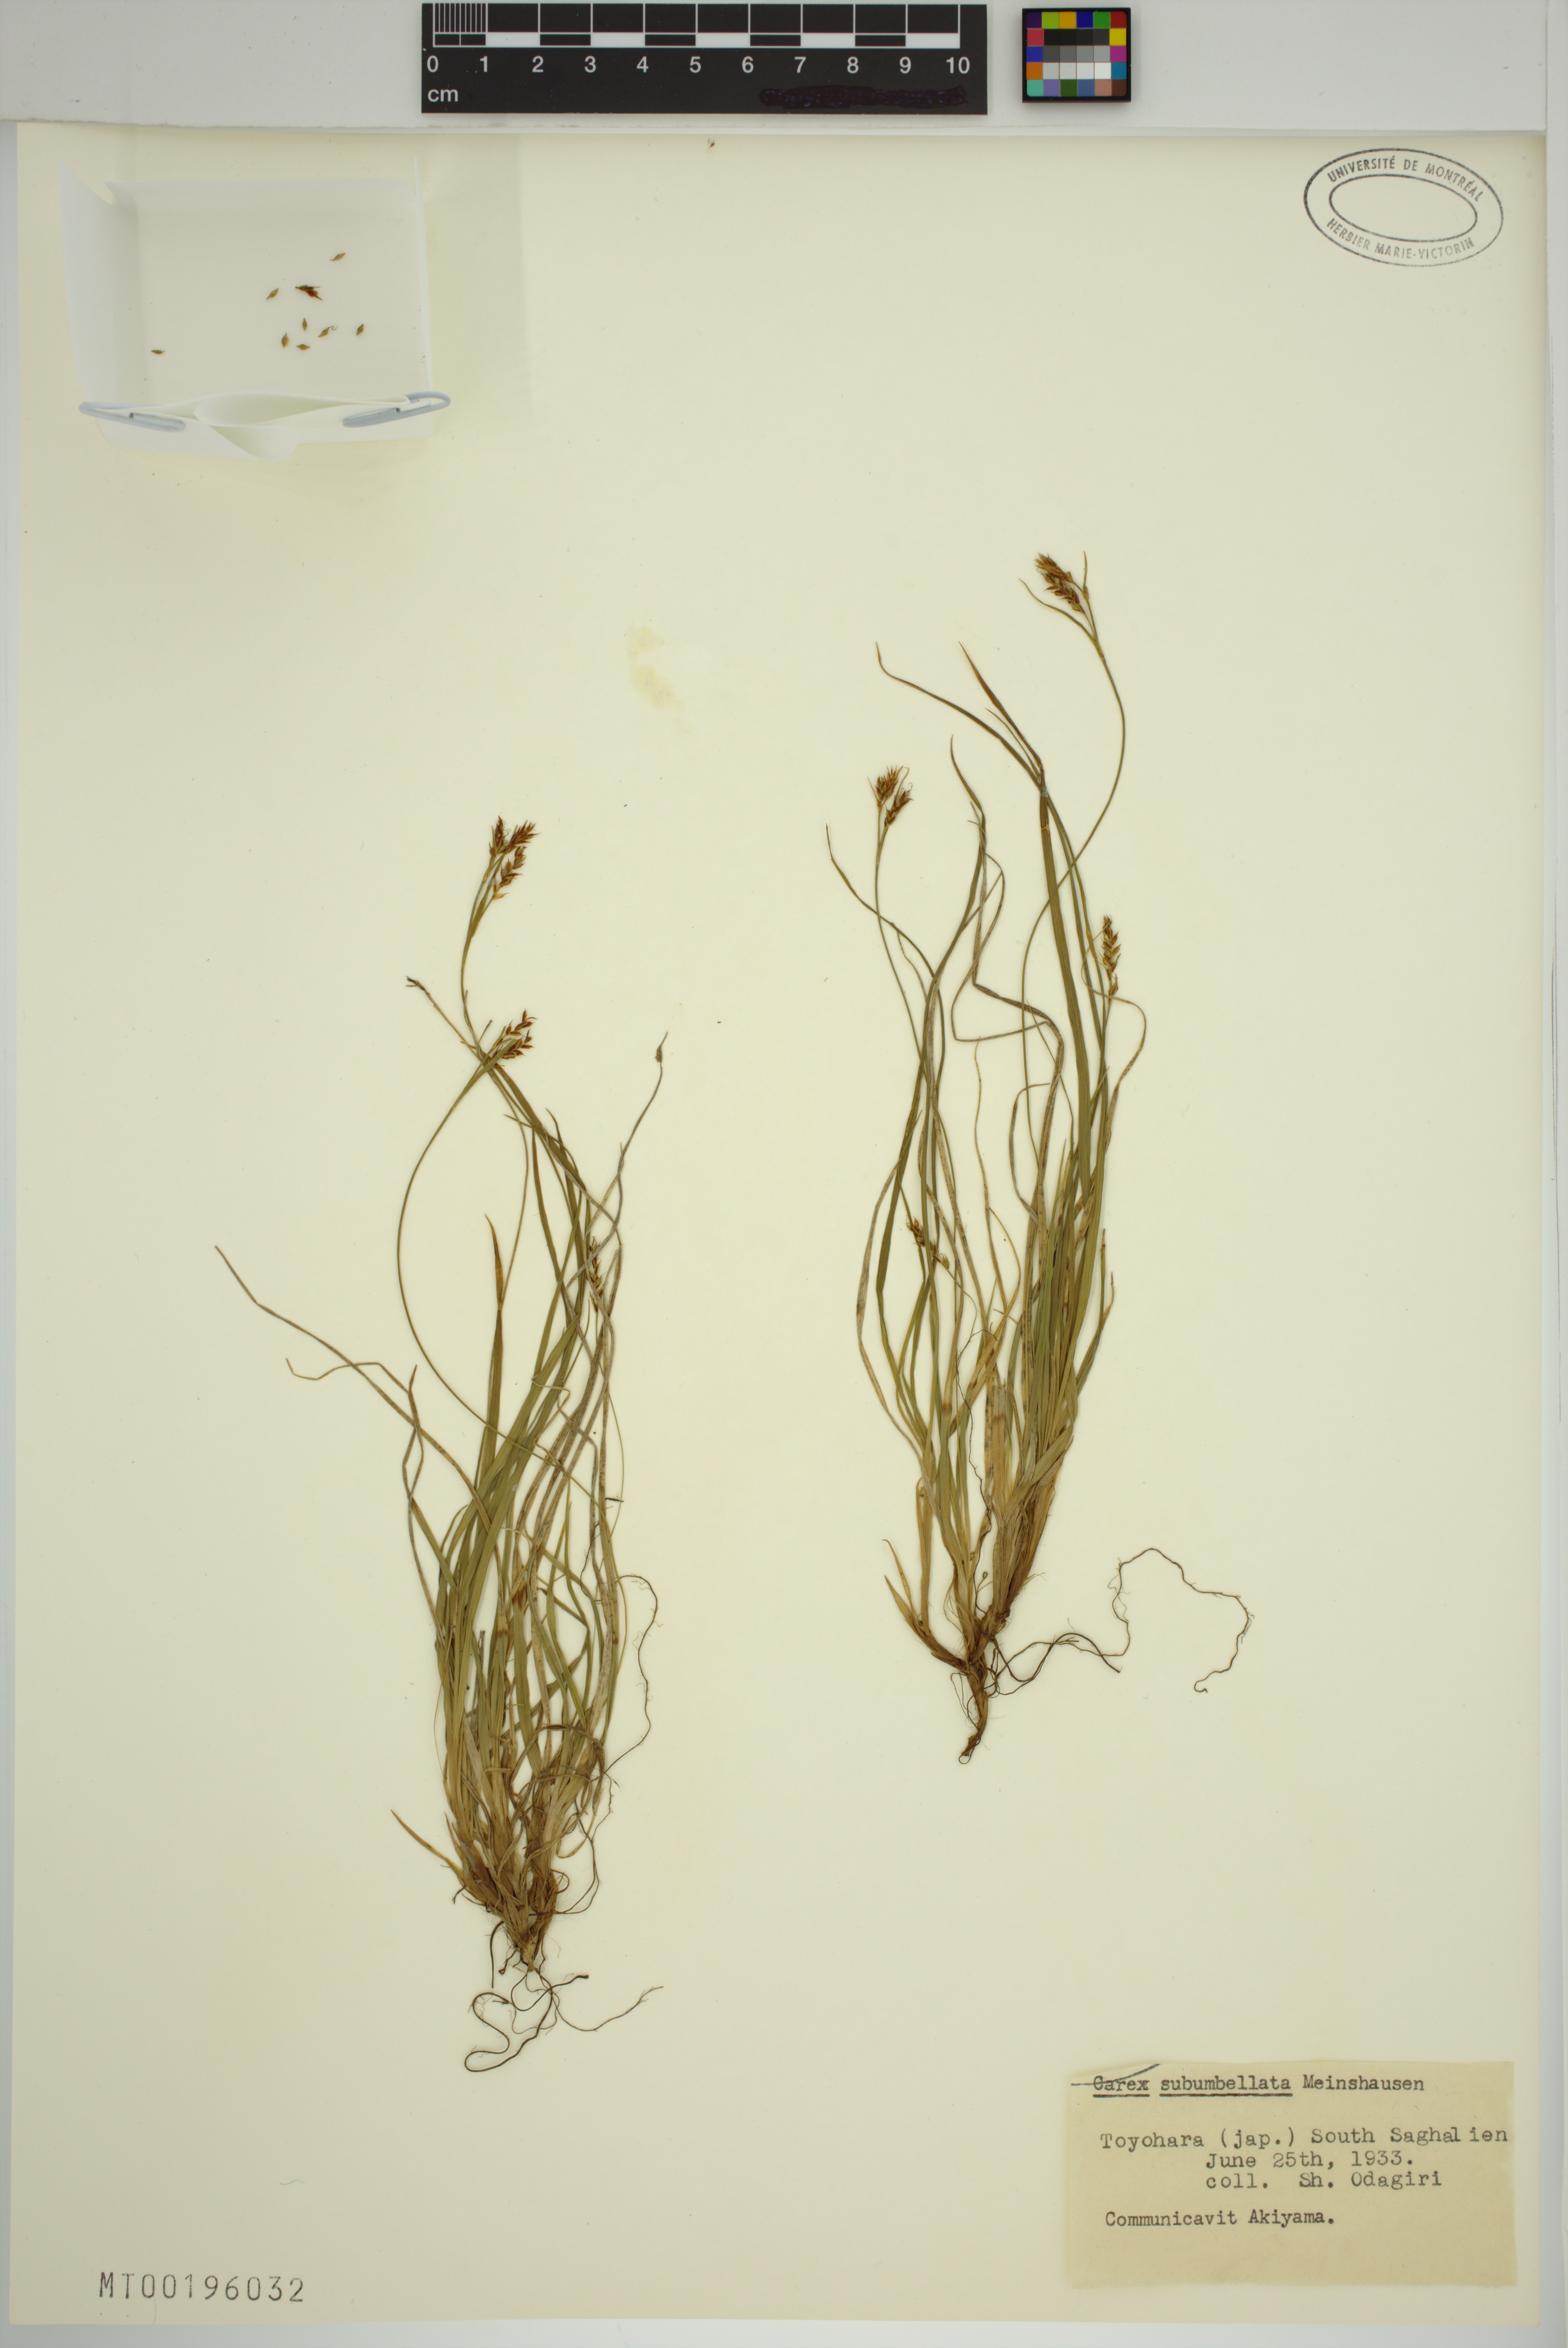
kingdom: Plantae
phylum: Tracheophyta
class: Liliopsida
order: Poales
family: Cyperaceae
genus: Carex
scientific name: Carex subumbellata
